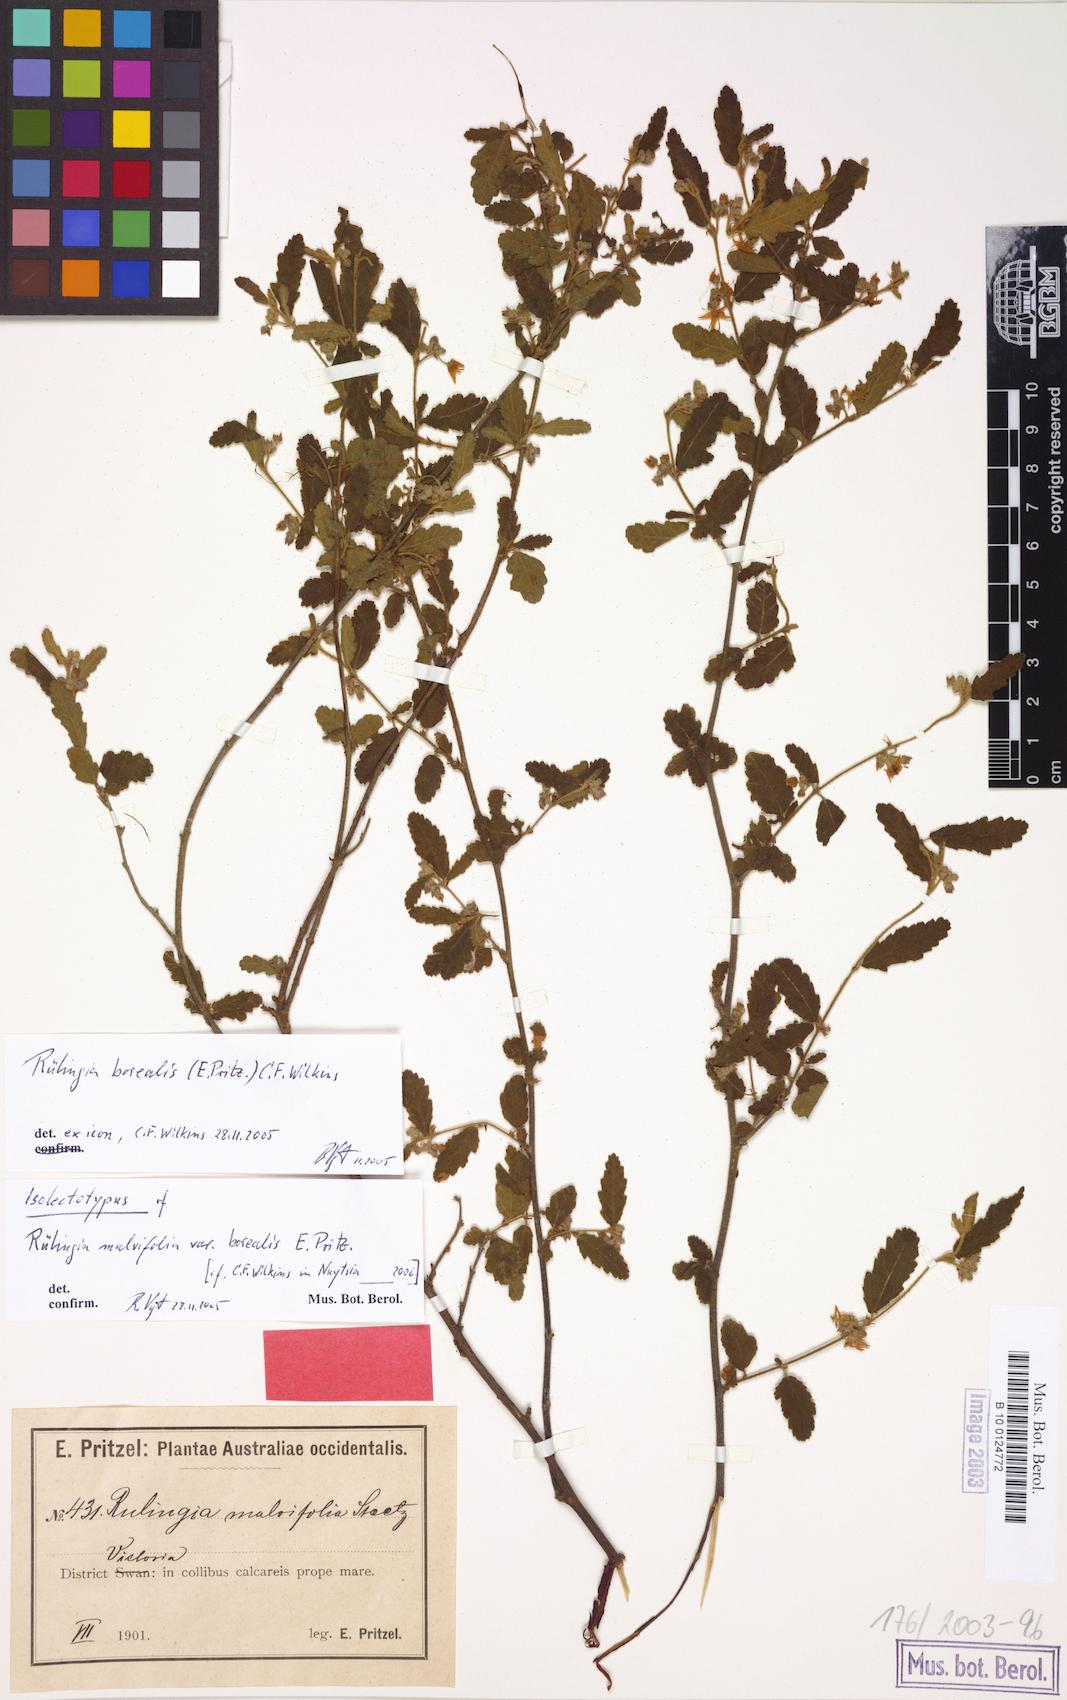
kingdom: Plantae
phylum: Tracheophyta
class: Magnoliopsida
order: Malvales
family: Malvaceae
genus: Commersonia
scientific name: Commersonia borealis
